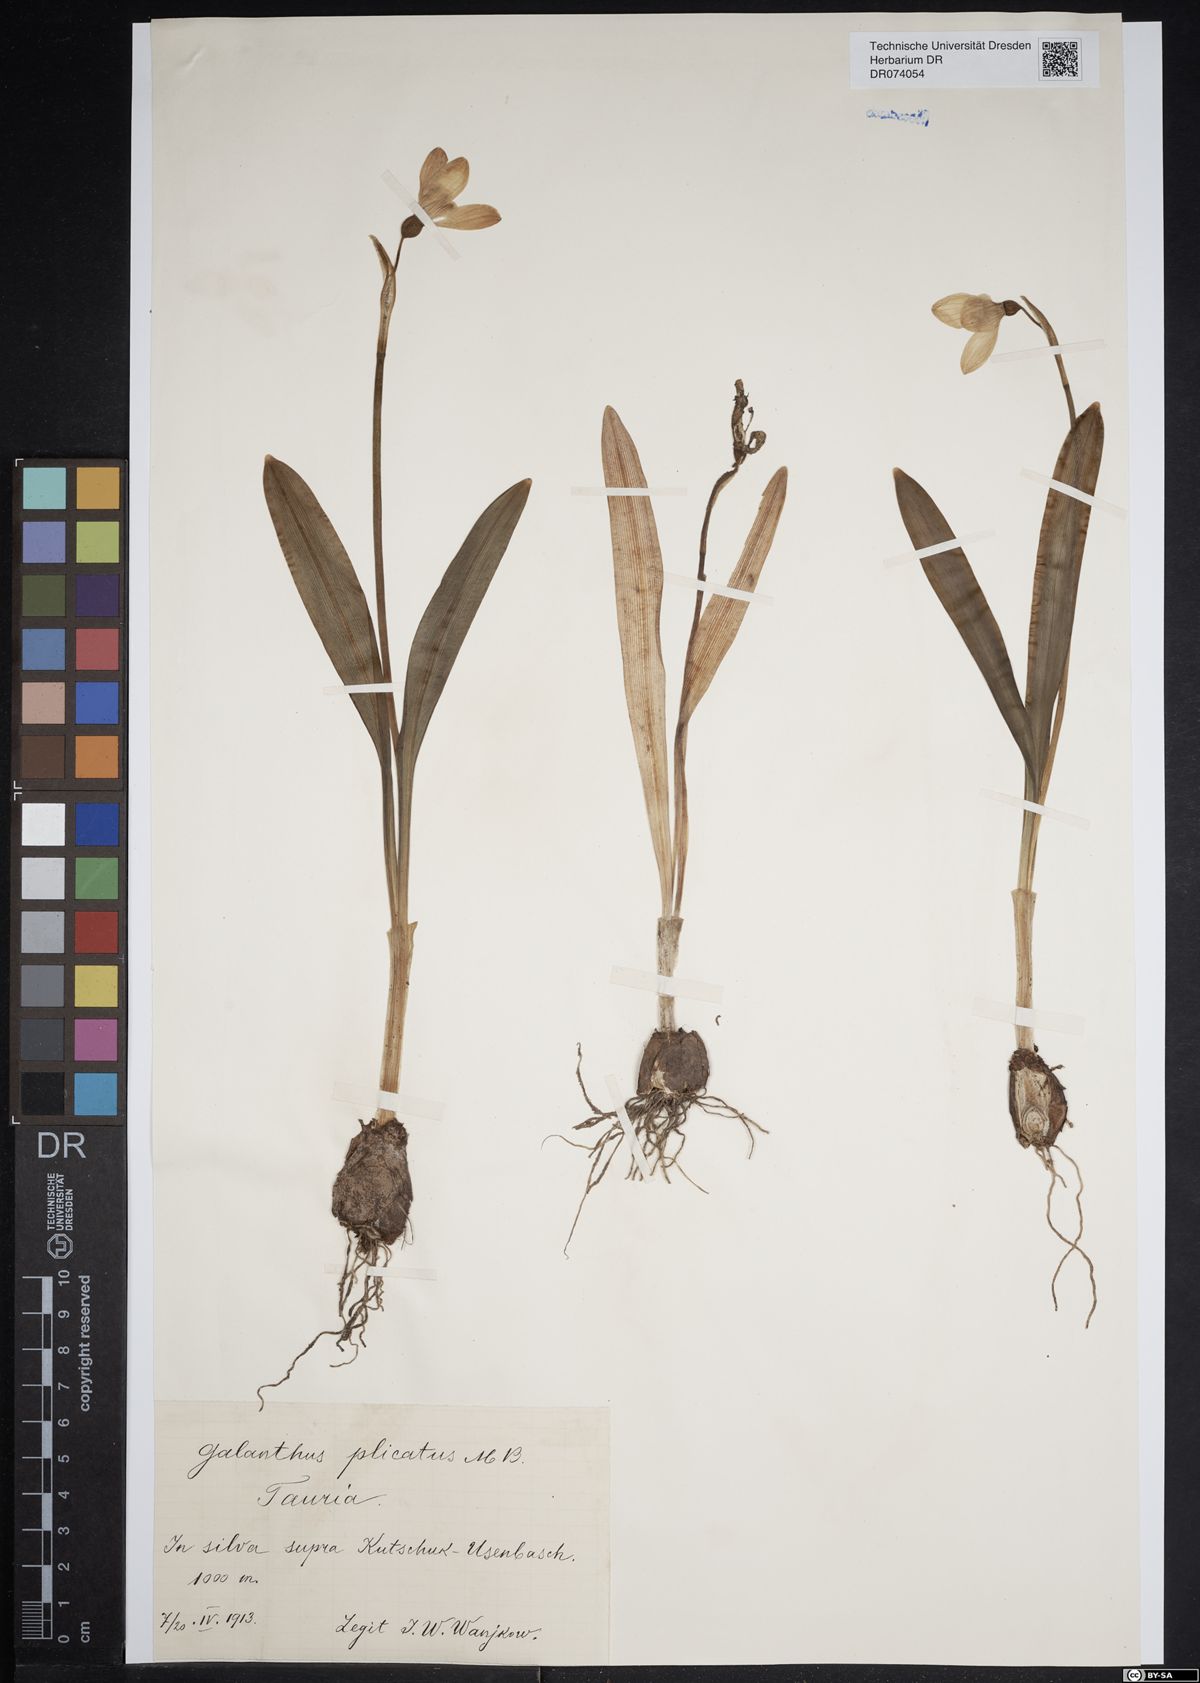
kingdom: Plantae
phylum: Tracheophyta
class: Liliopsida
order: Asparagales
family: Amaryllidaceae
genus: Galanthus
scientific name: Galanthus plicatus
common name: Pleated snowdrop
